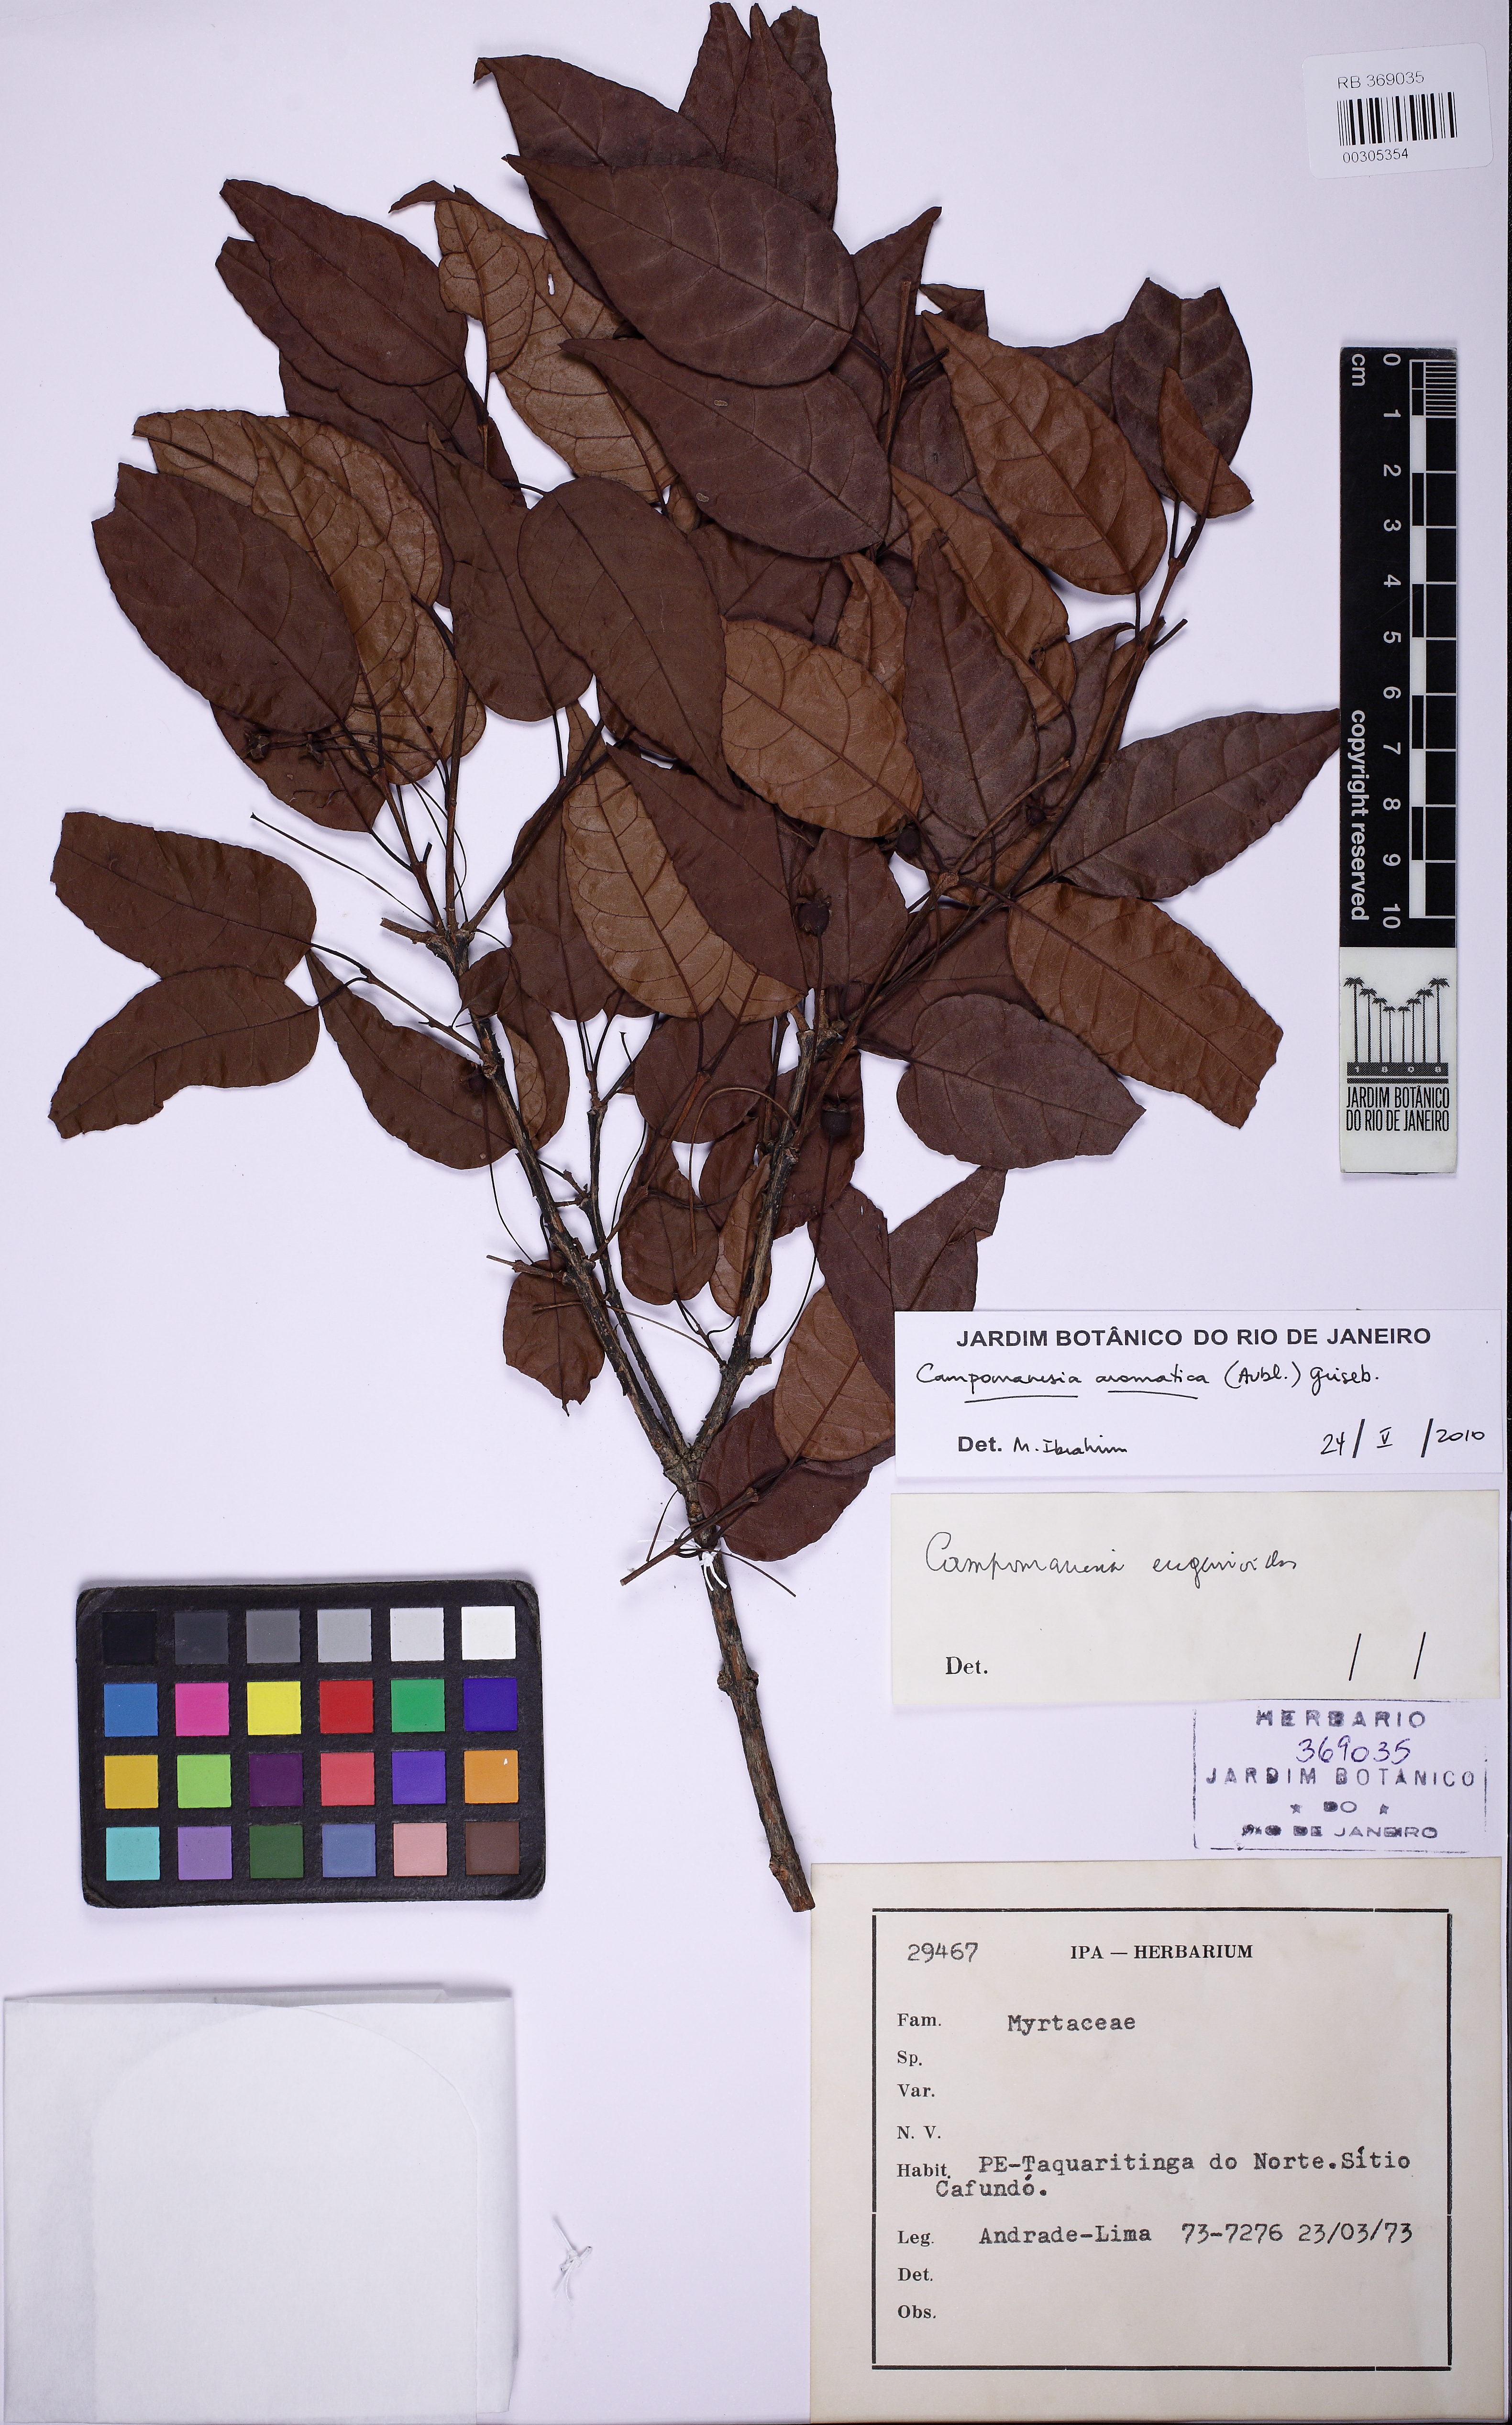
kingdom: Plantae
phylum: Tracheophyta
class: Magnoliopsida
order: Myrtales
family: Myrtaceae
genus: Campomanesia
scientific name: Campomanesia aromatica
